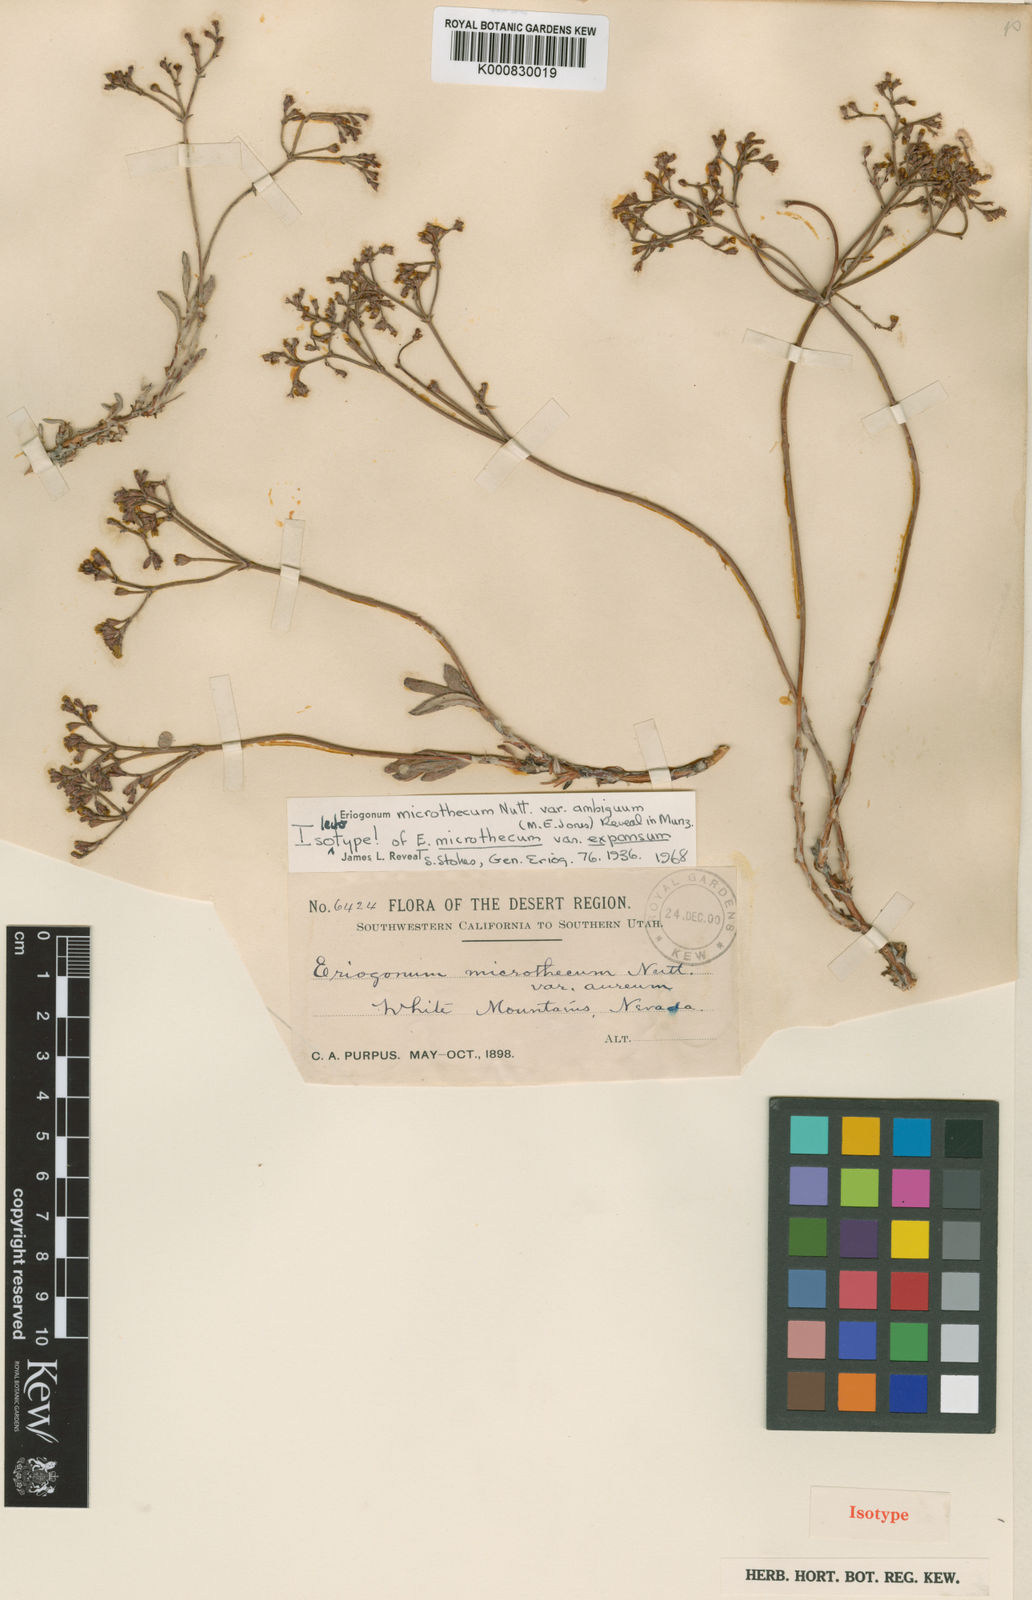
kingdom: Plantae
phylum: Tracheophyta
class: Magnoliopsida
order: Caryophyllales
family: Polygonaceae
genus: Eriogonum
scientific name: Eriogonum microtheca
